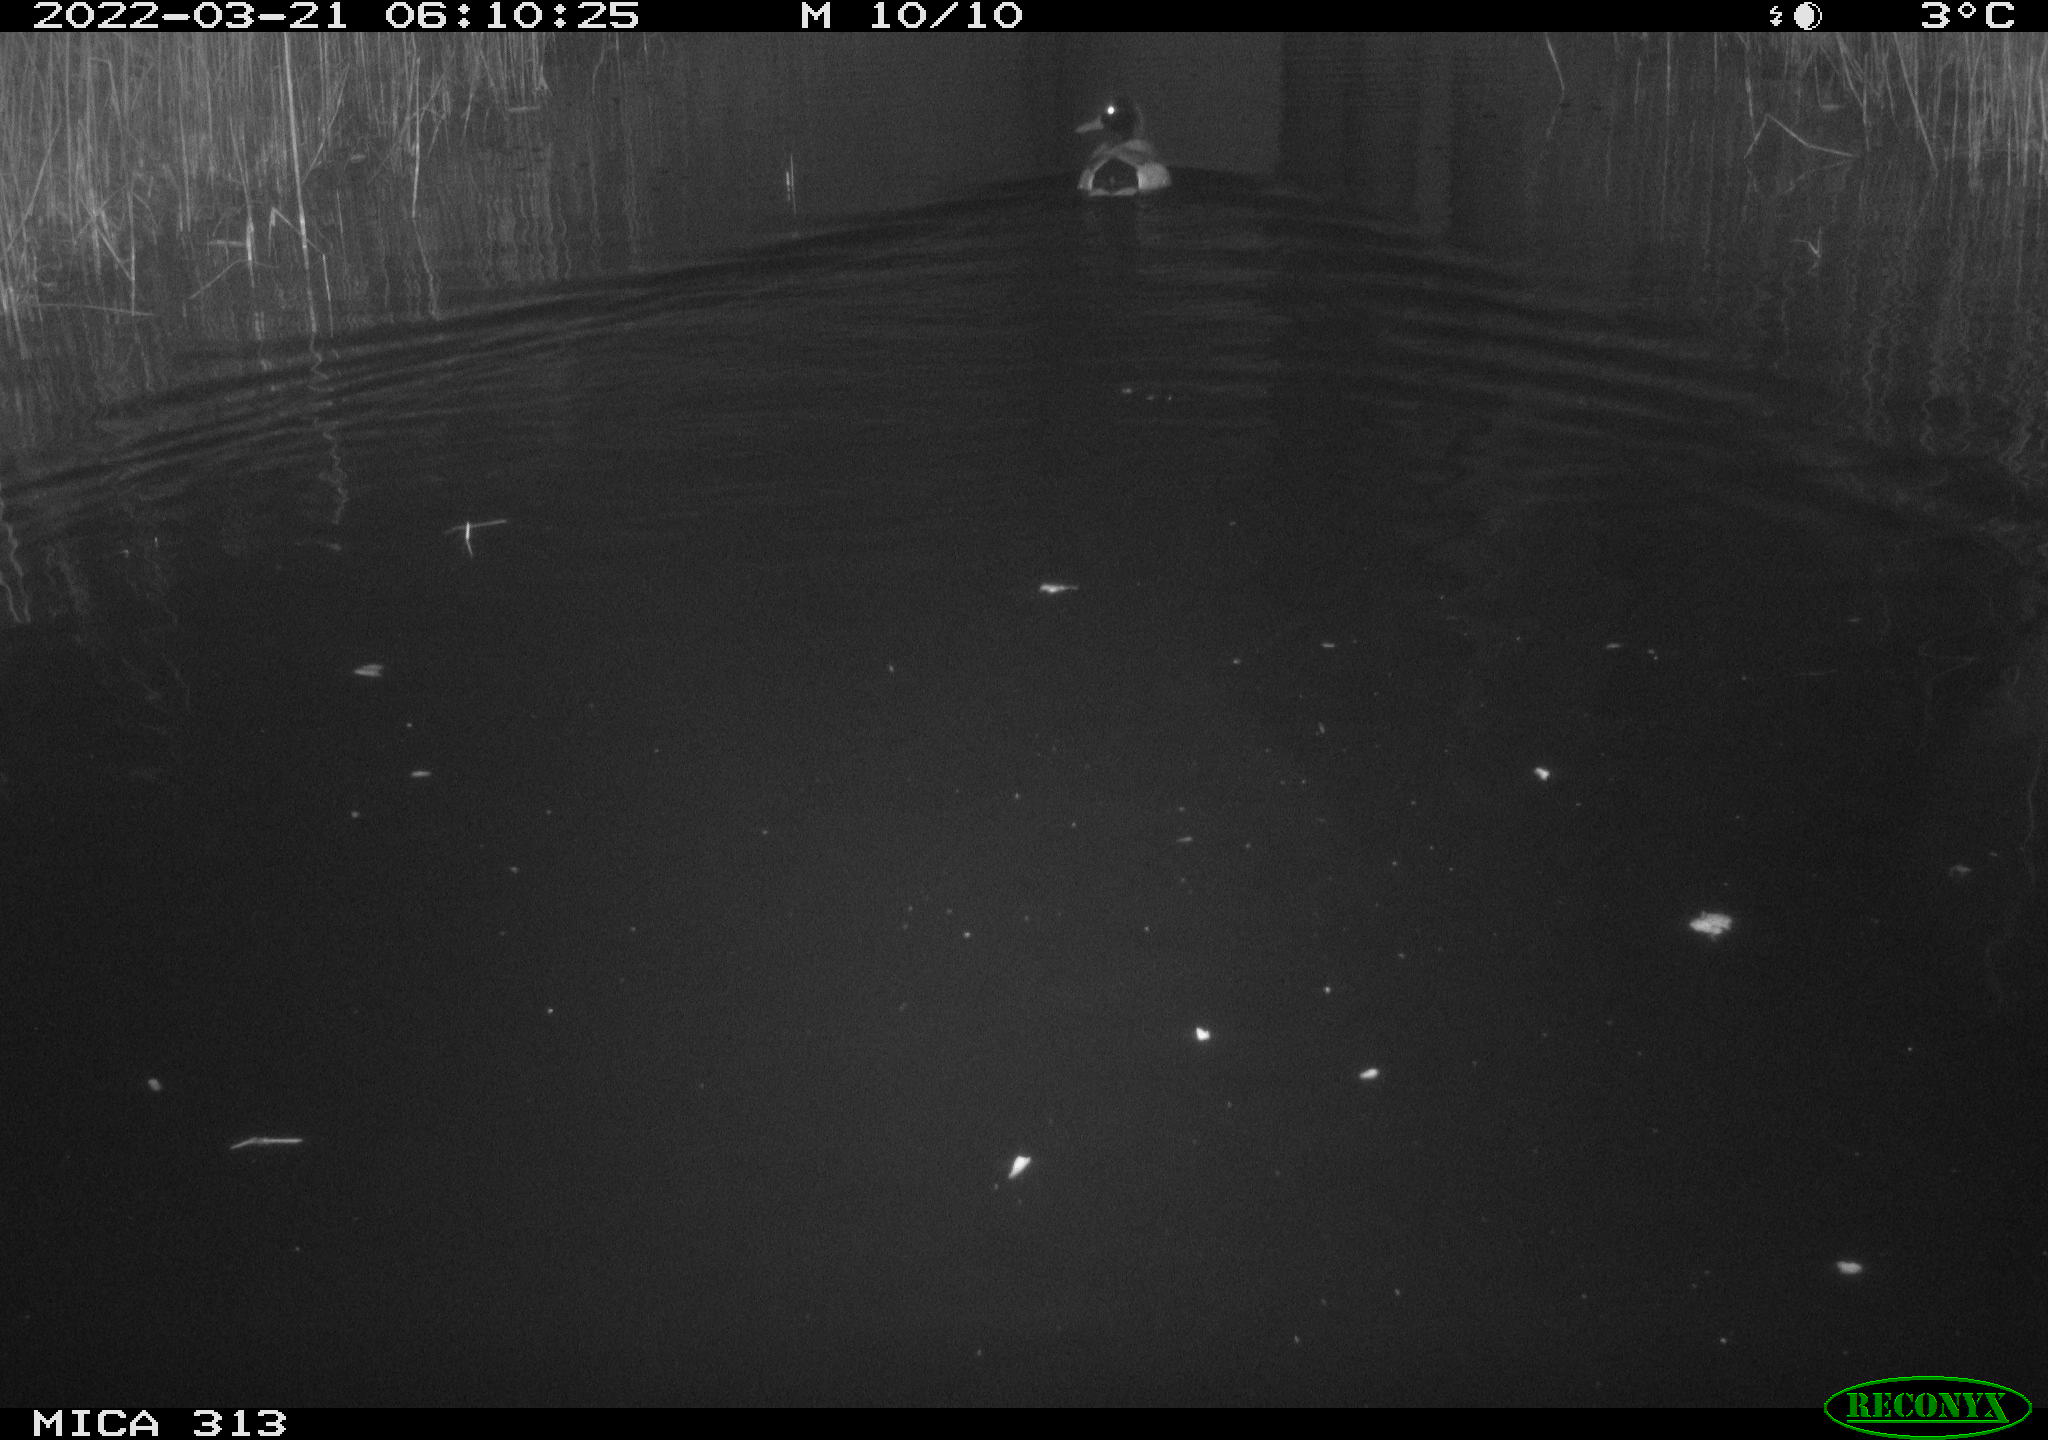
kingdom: Animalia
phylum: Chordata
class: Aves
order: Anseriformes
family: Anatidae
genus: Anas
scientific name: Anas platyrhynchos
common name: Mallard
